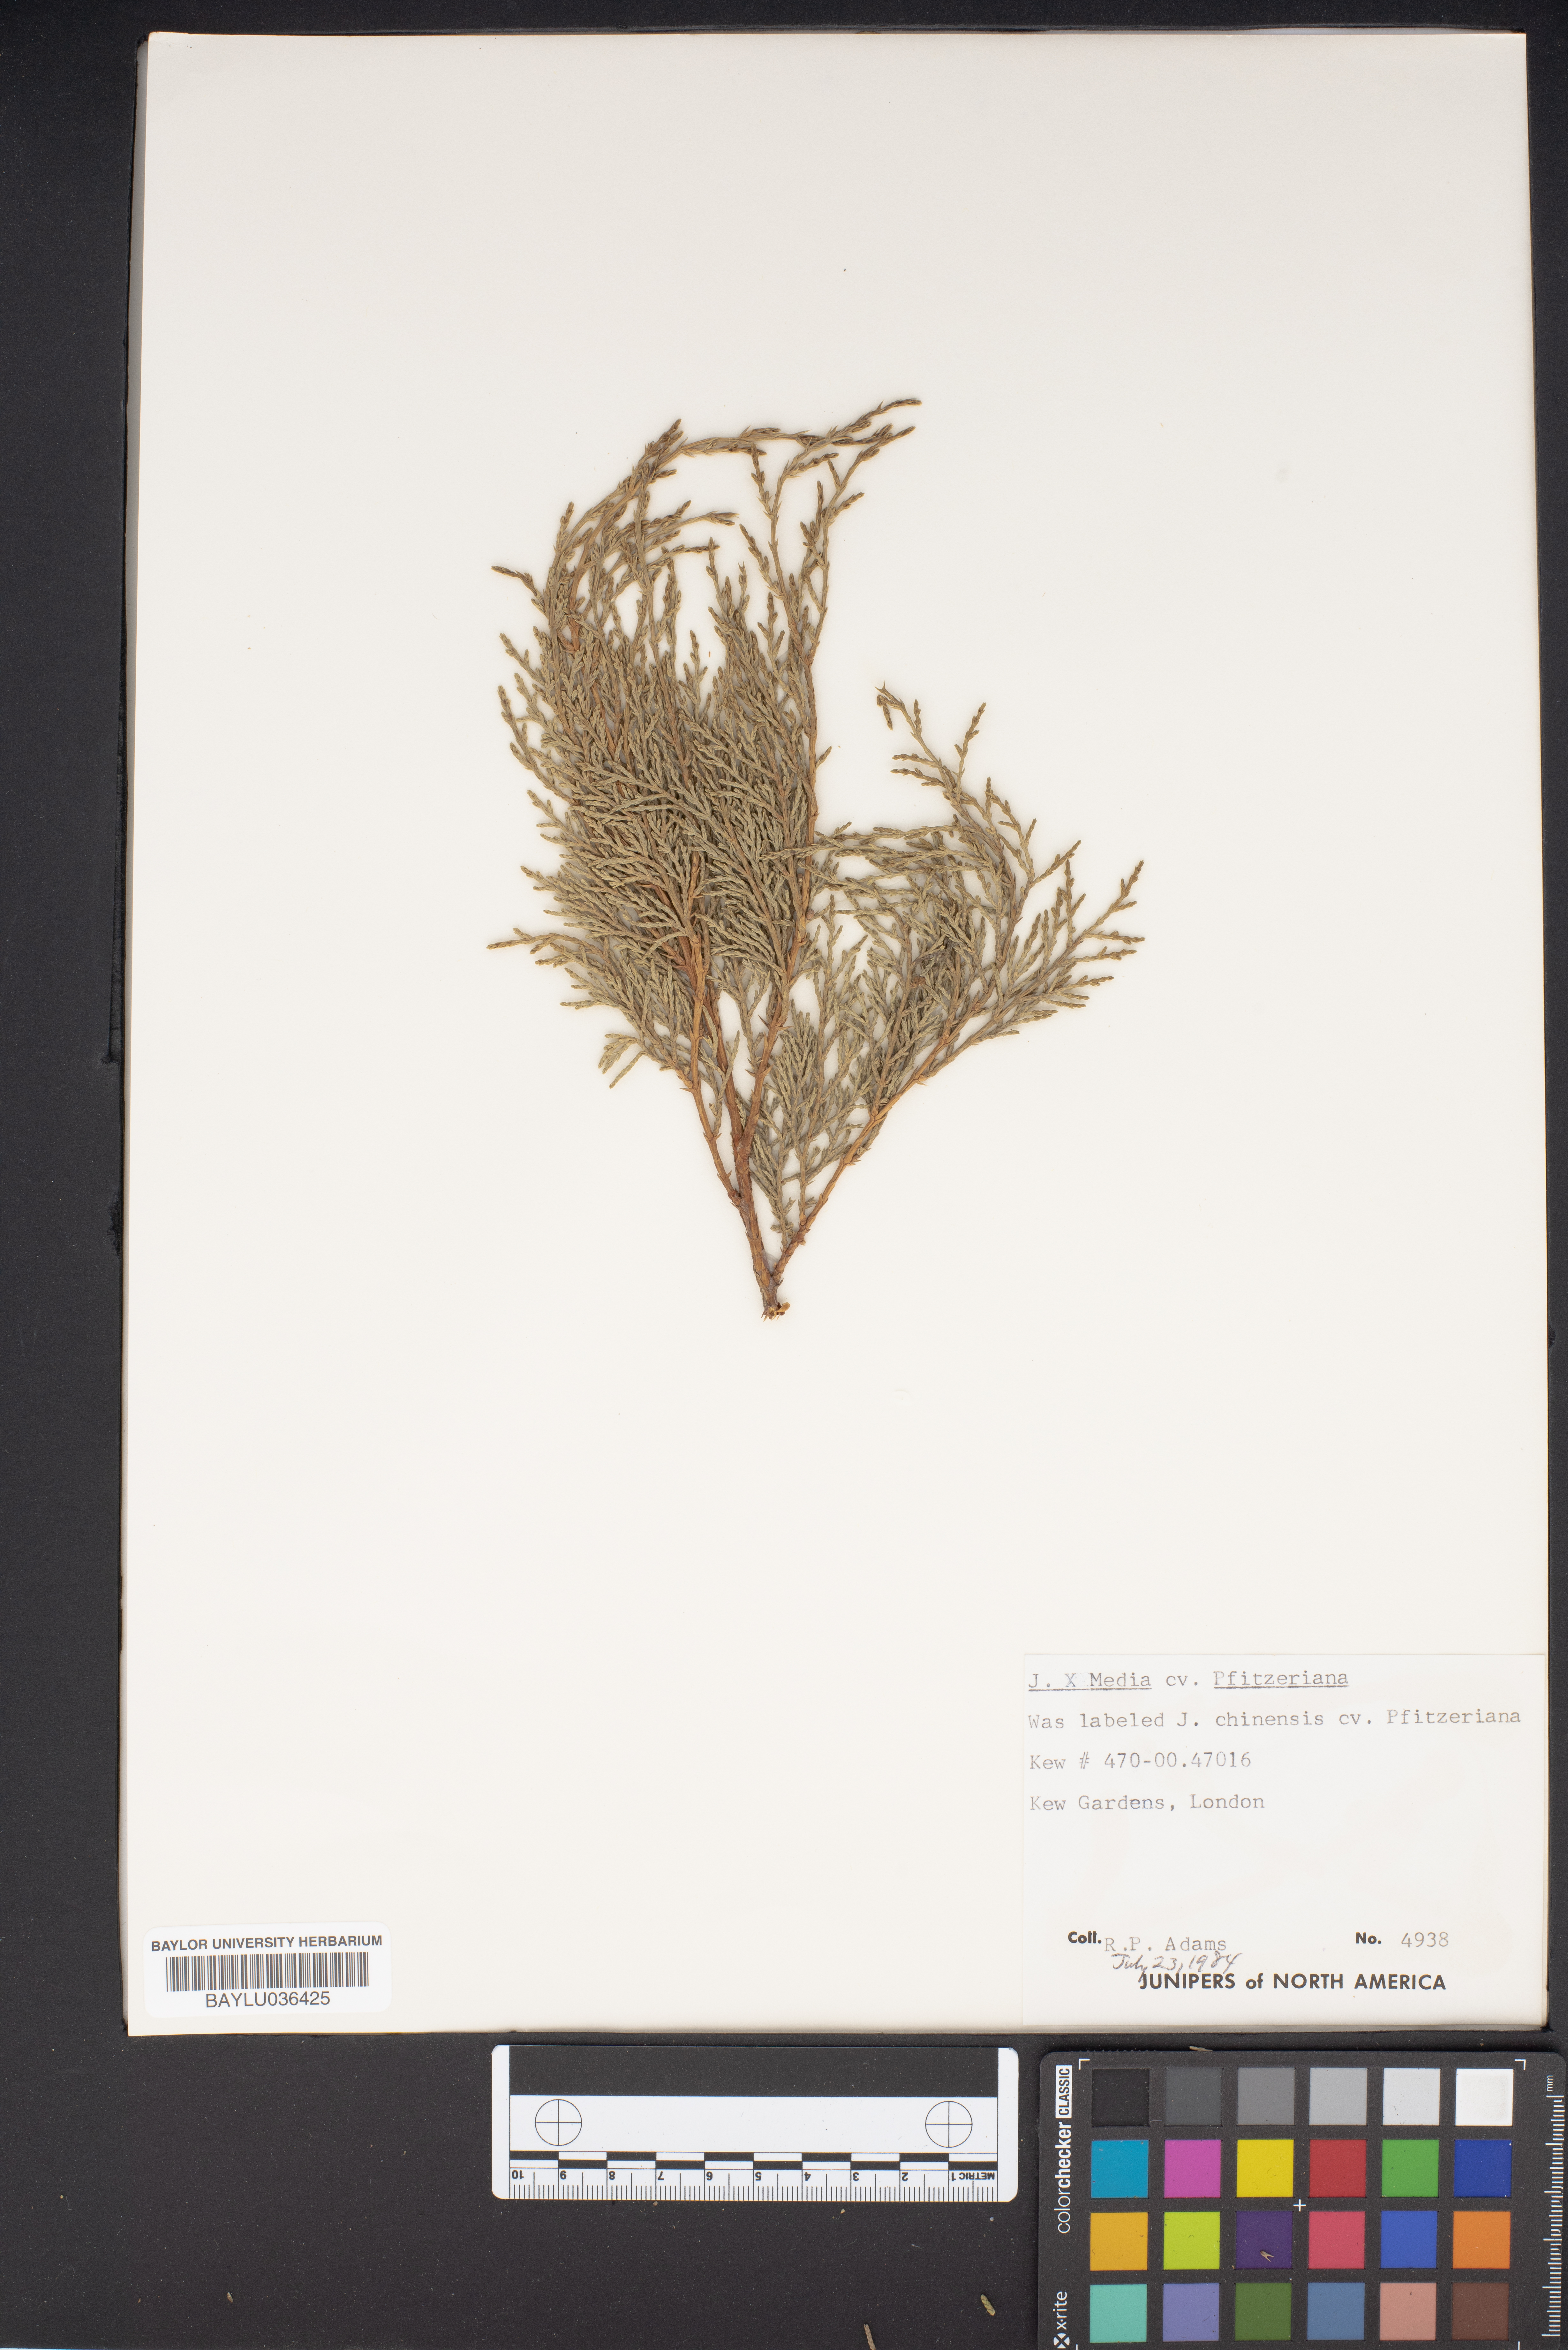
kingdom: Plantae
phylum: Tracheophyta
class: Pinopsida
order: Pinales
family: Cupressaceae
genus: Juniperus
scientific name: Juniperus pfitzeriana
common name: Pfitzer juniper
